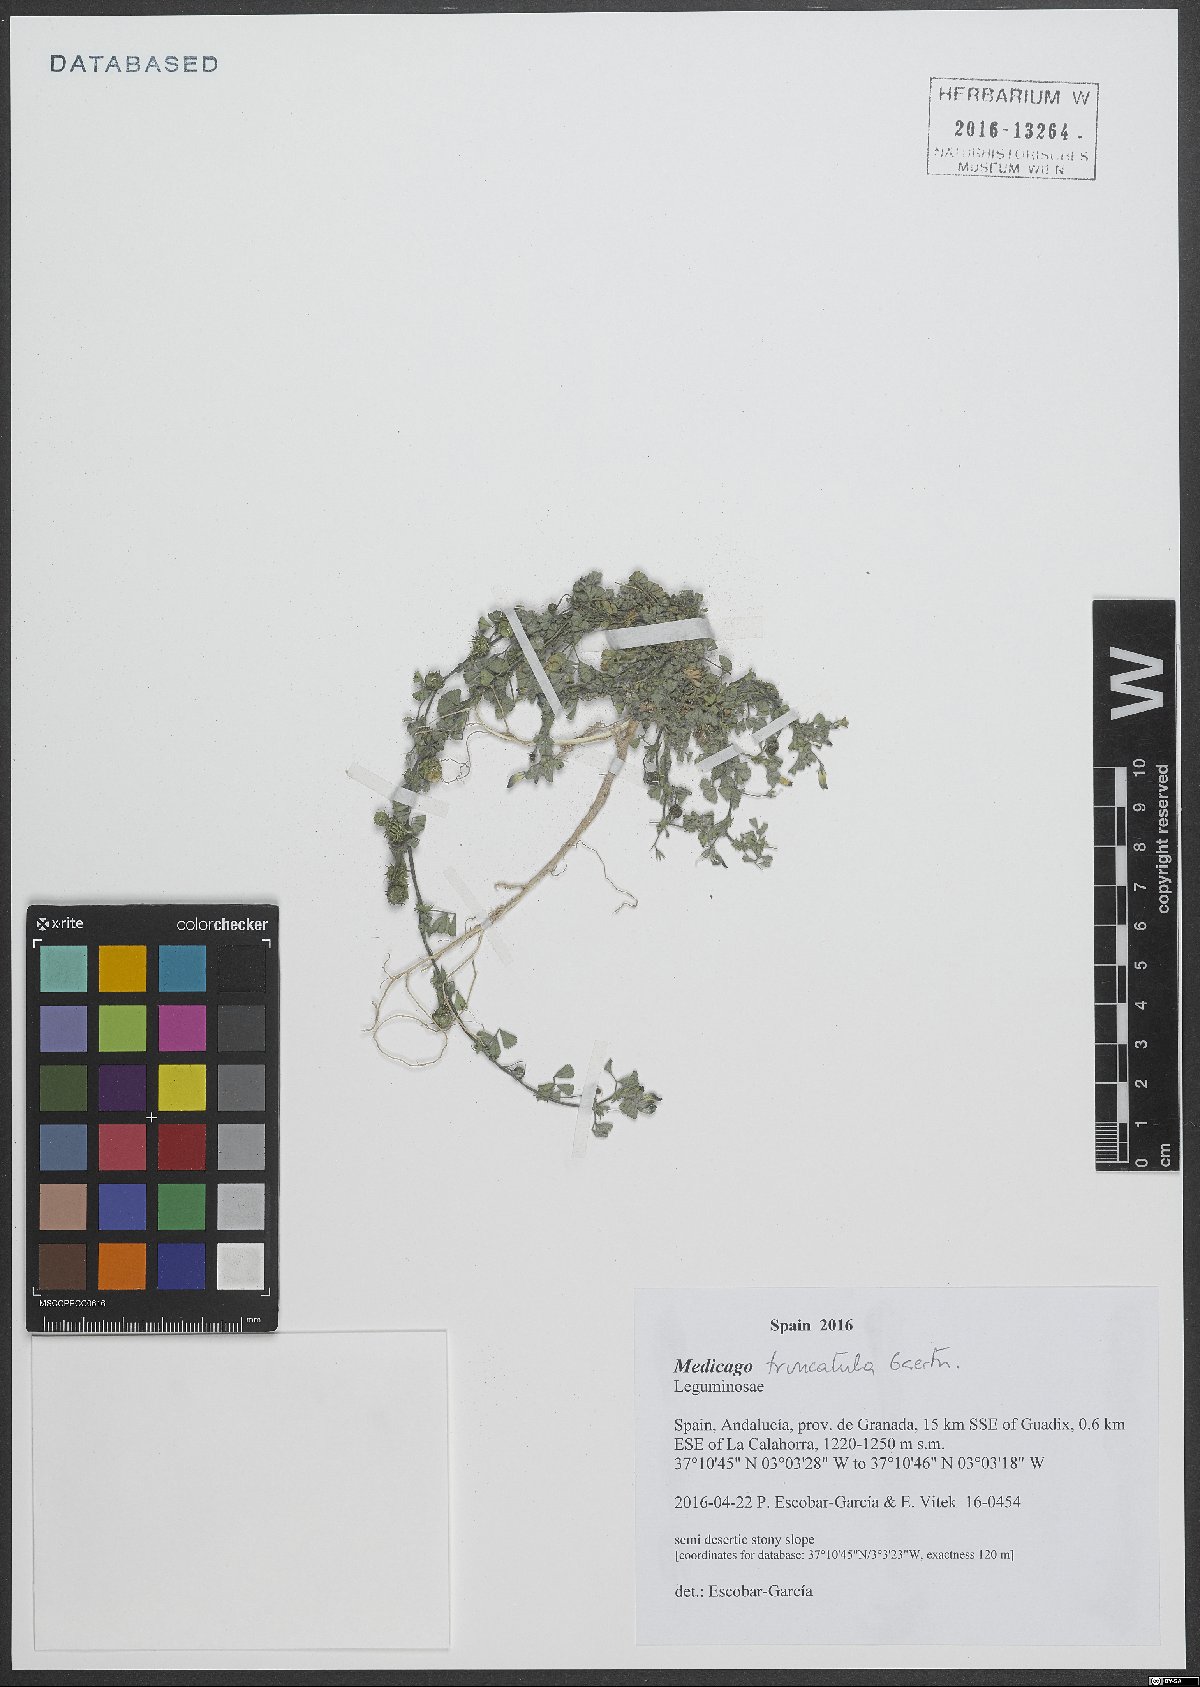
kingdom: Plantae
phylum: Tracheophyta
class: Magnoliopsida
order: Fabales
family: Fabaceae
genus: Medicago
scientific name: Medicago truncatula
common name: Strong-spined medick
